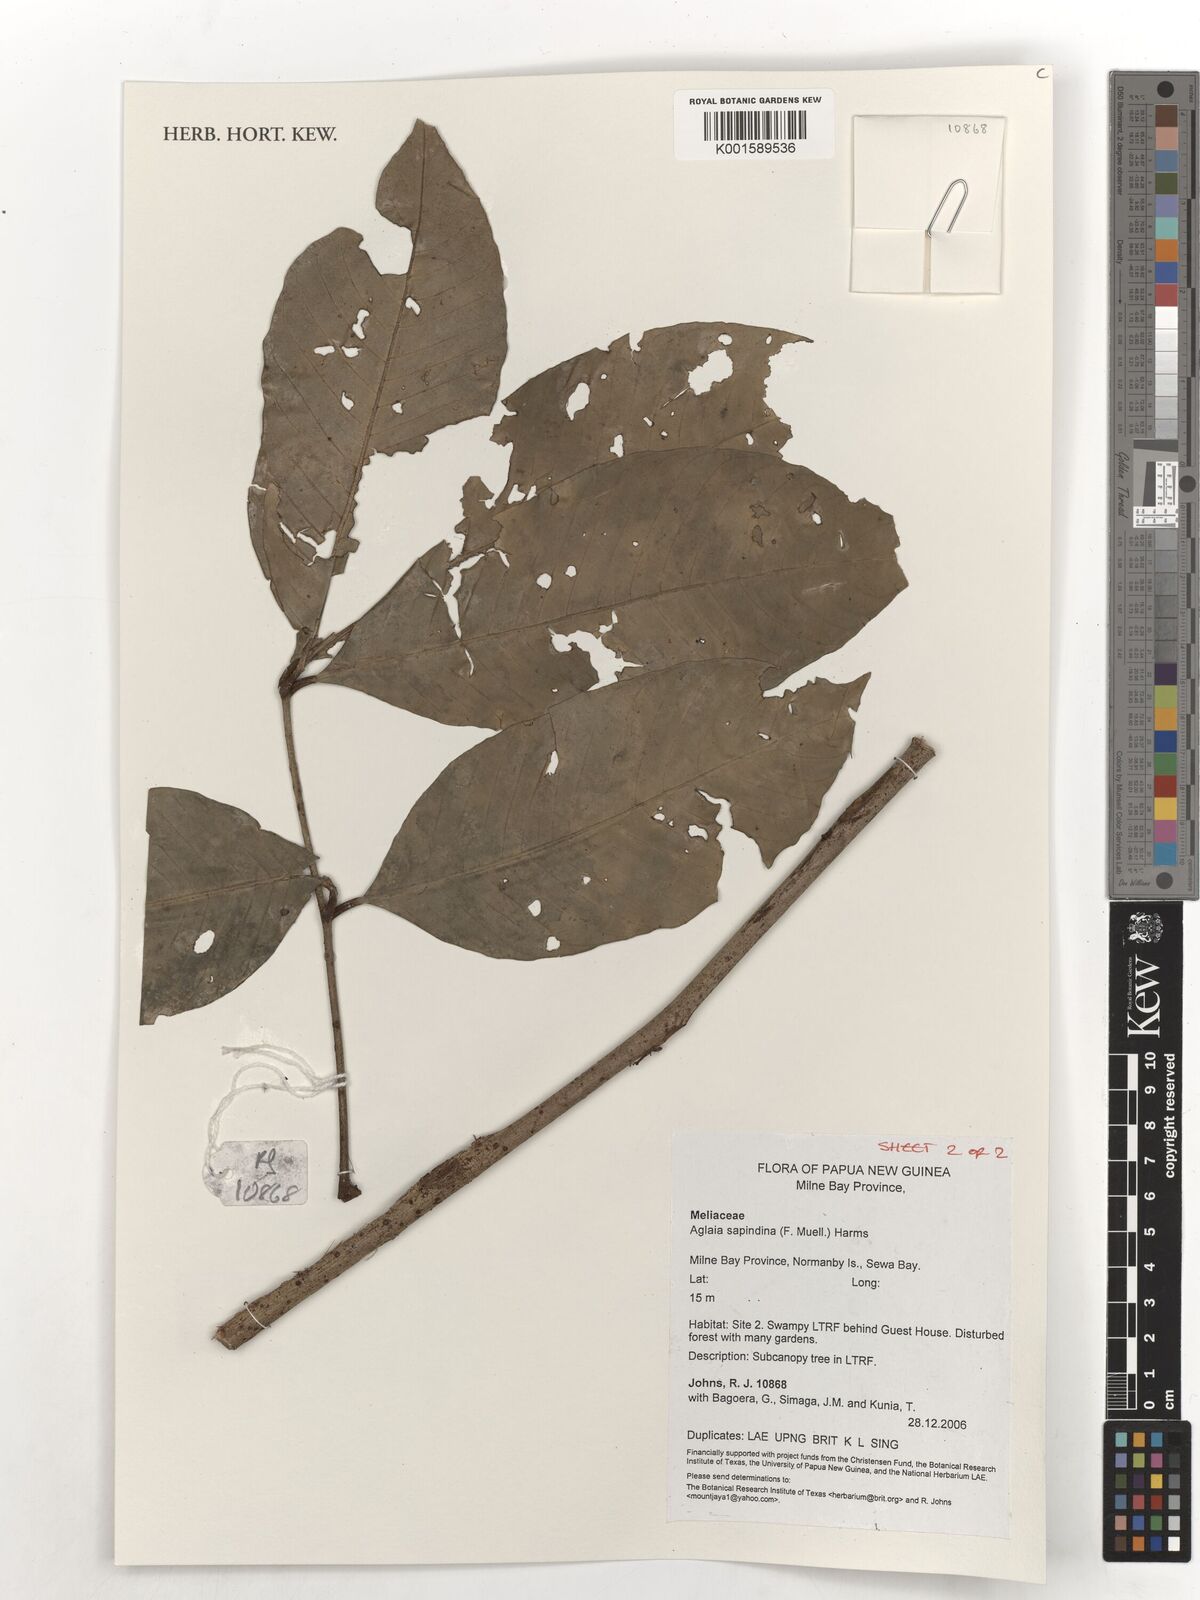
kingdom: Plantae
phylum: Tracheophyta
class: Magnoliopsida
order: Sapindales
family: Meliaceae
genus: Aglaia
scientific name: Aglaia sapindina
